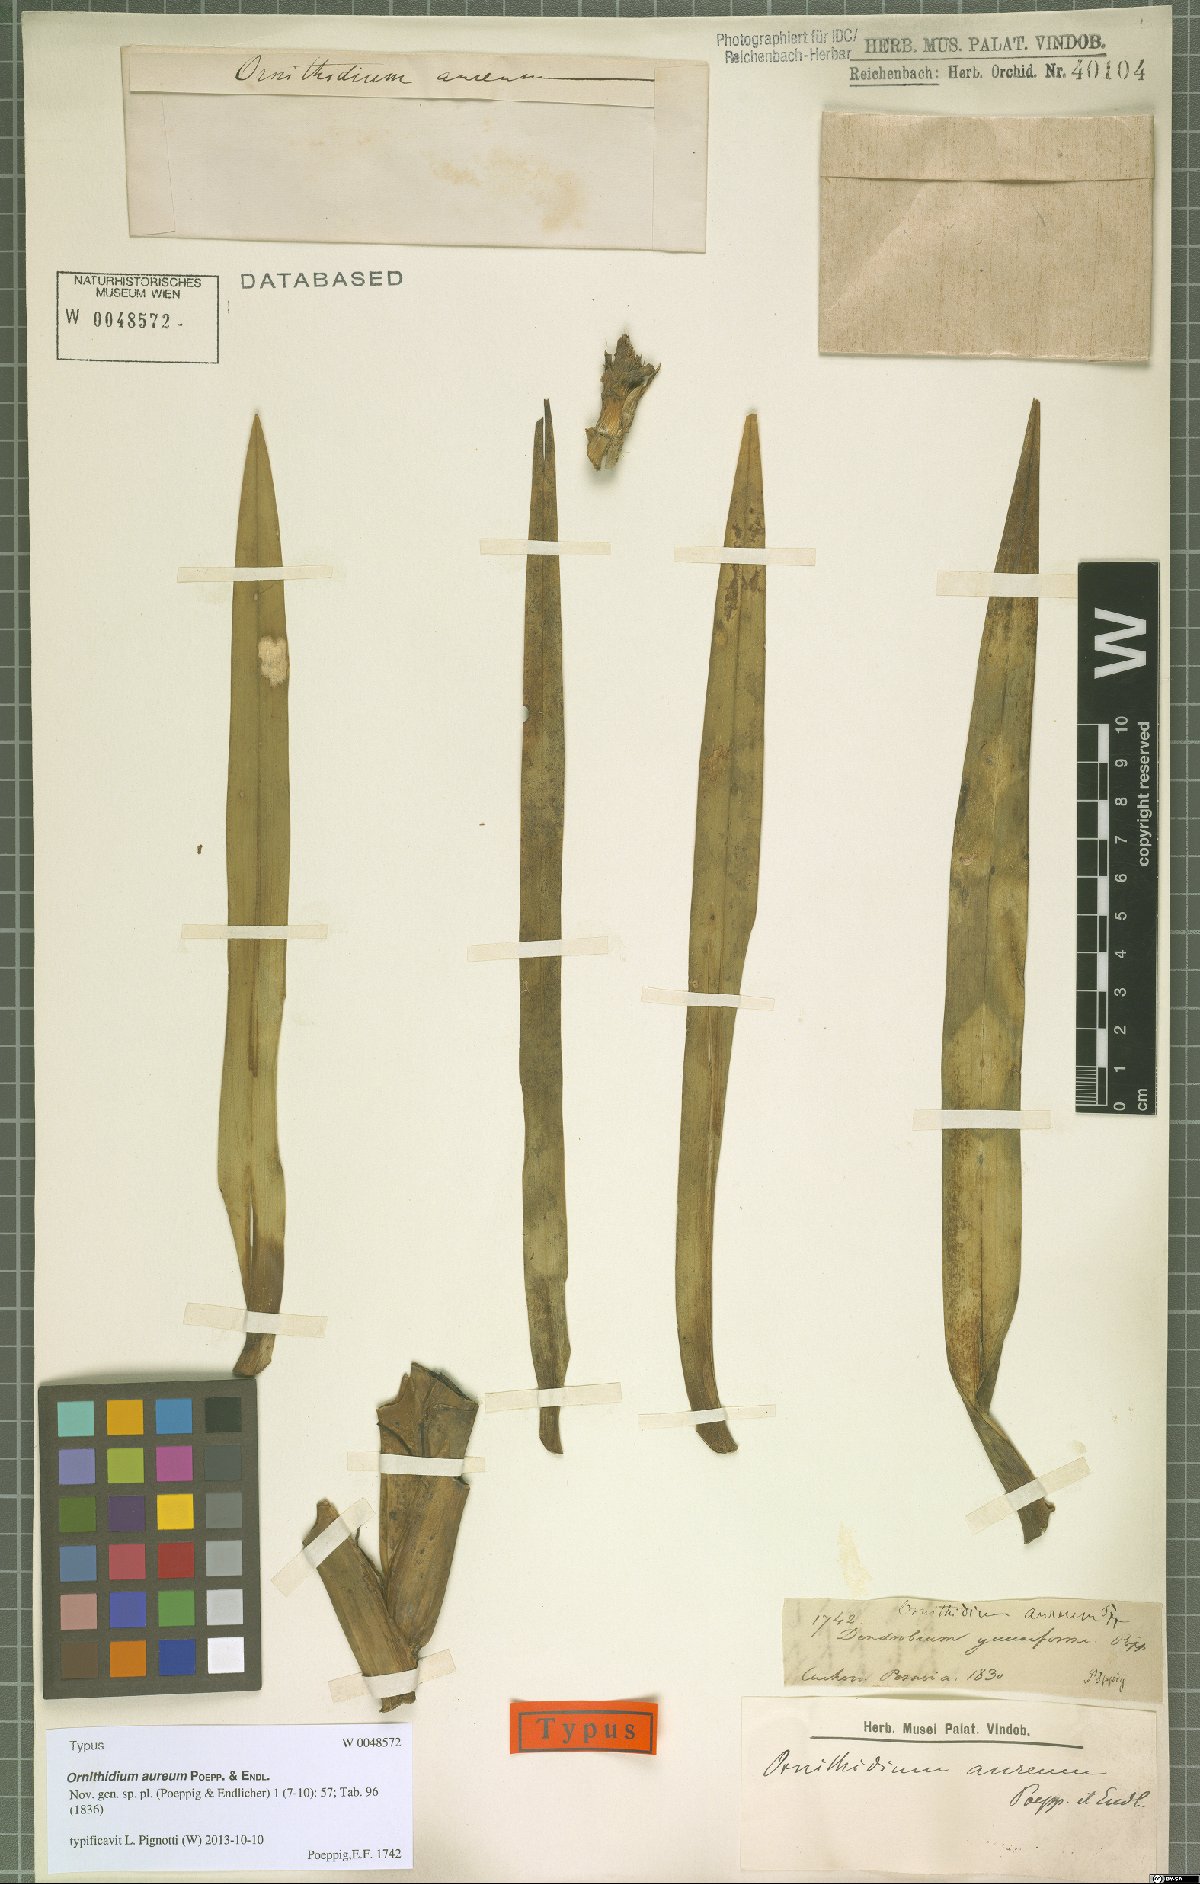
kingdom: Plantae
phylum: Tracheophyta
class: Liliopsida
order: Asparagales
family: Orchidaceae
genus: Maxillaria
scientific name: Maxillaria aurea
